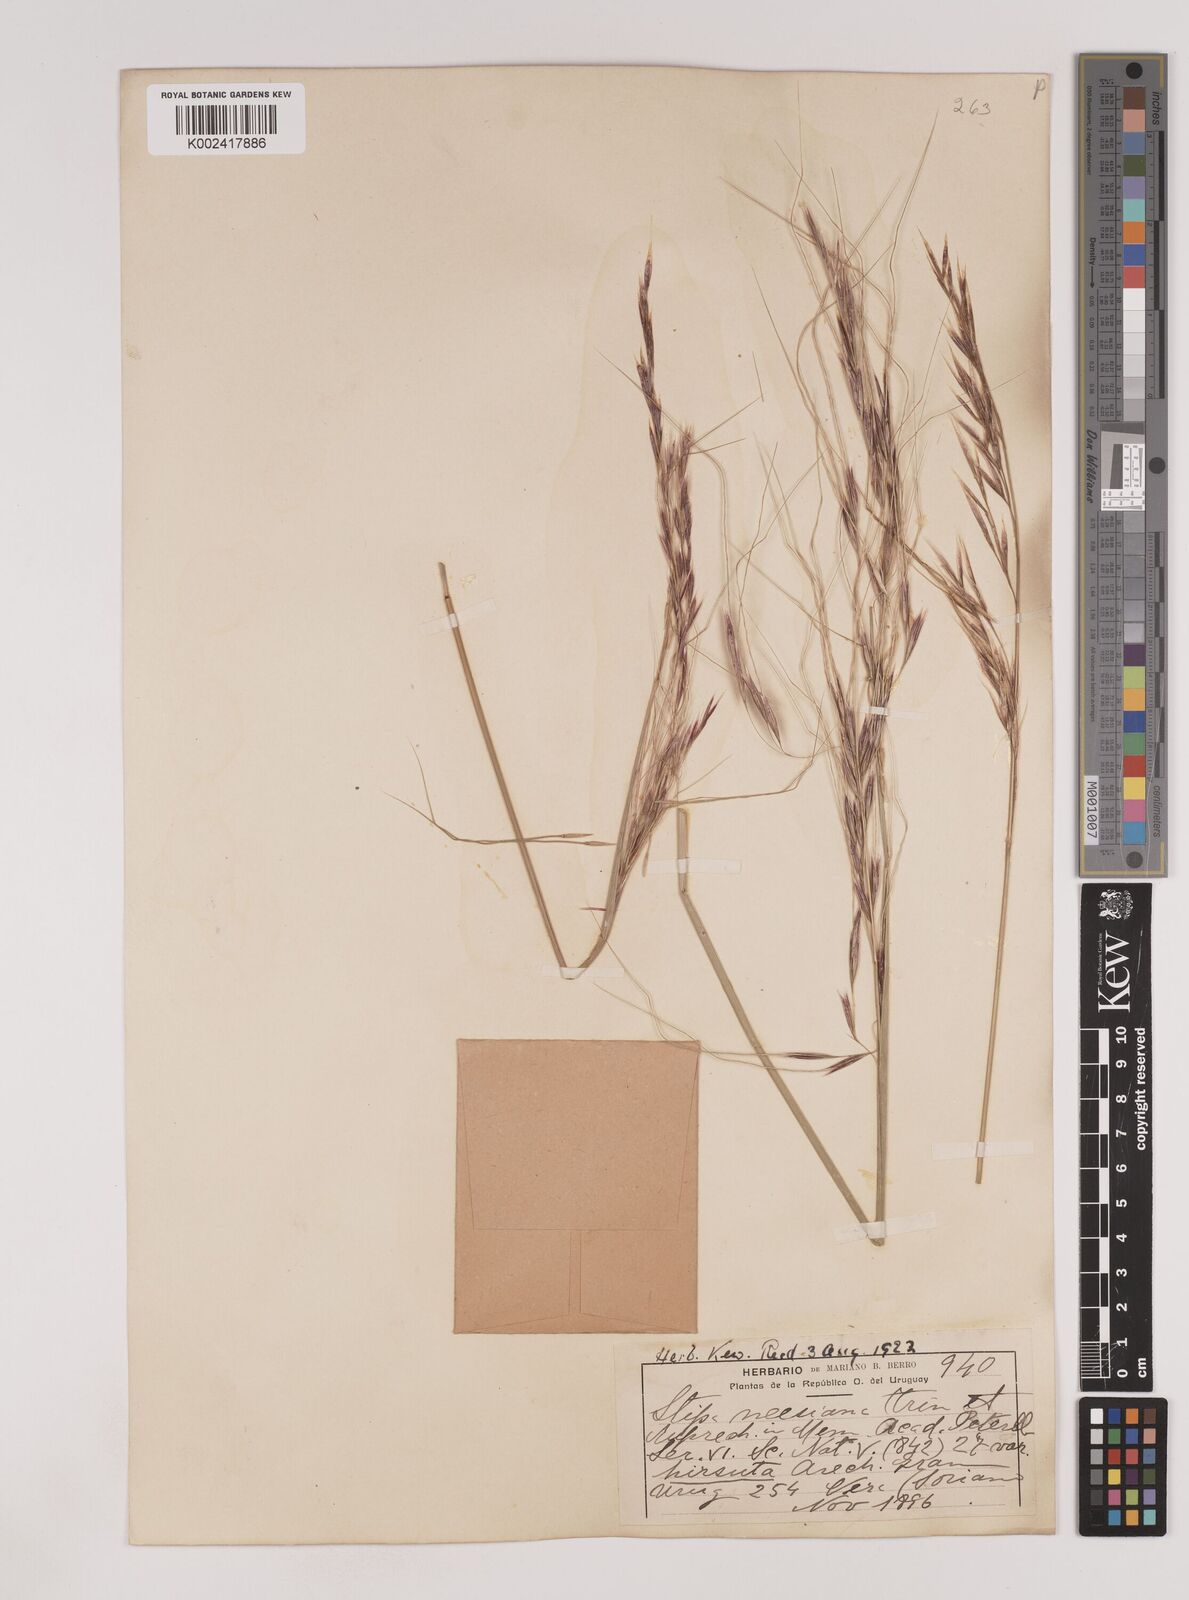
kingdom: Plantae
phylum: Tracheophyta
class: Liliopsida
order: Poales
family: Poaceae
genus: Nassella
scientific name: Nassella neesiana
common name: American needle-grass
